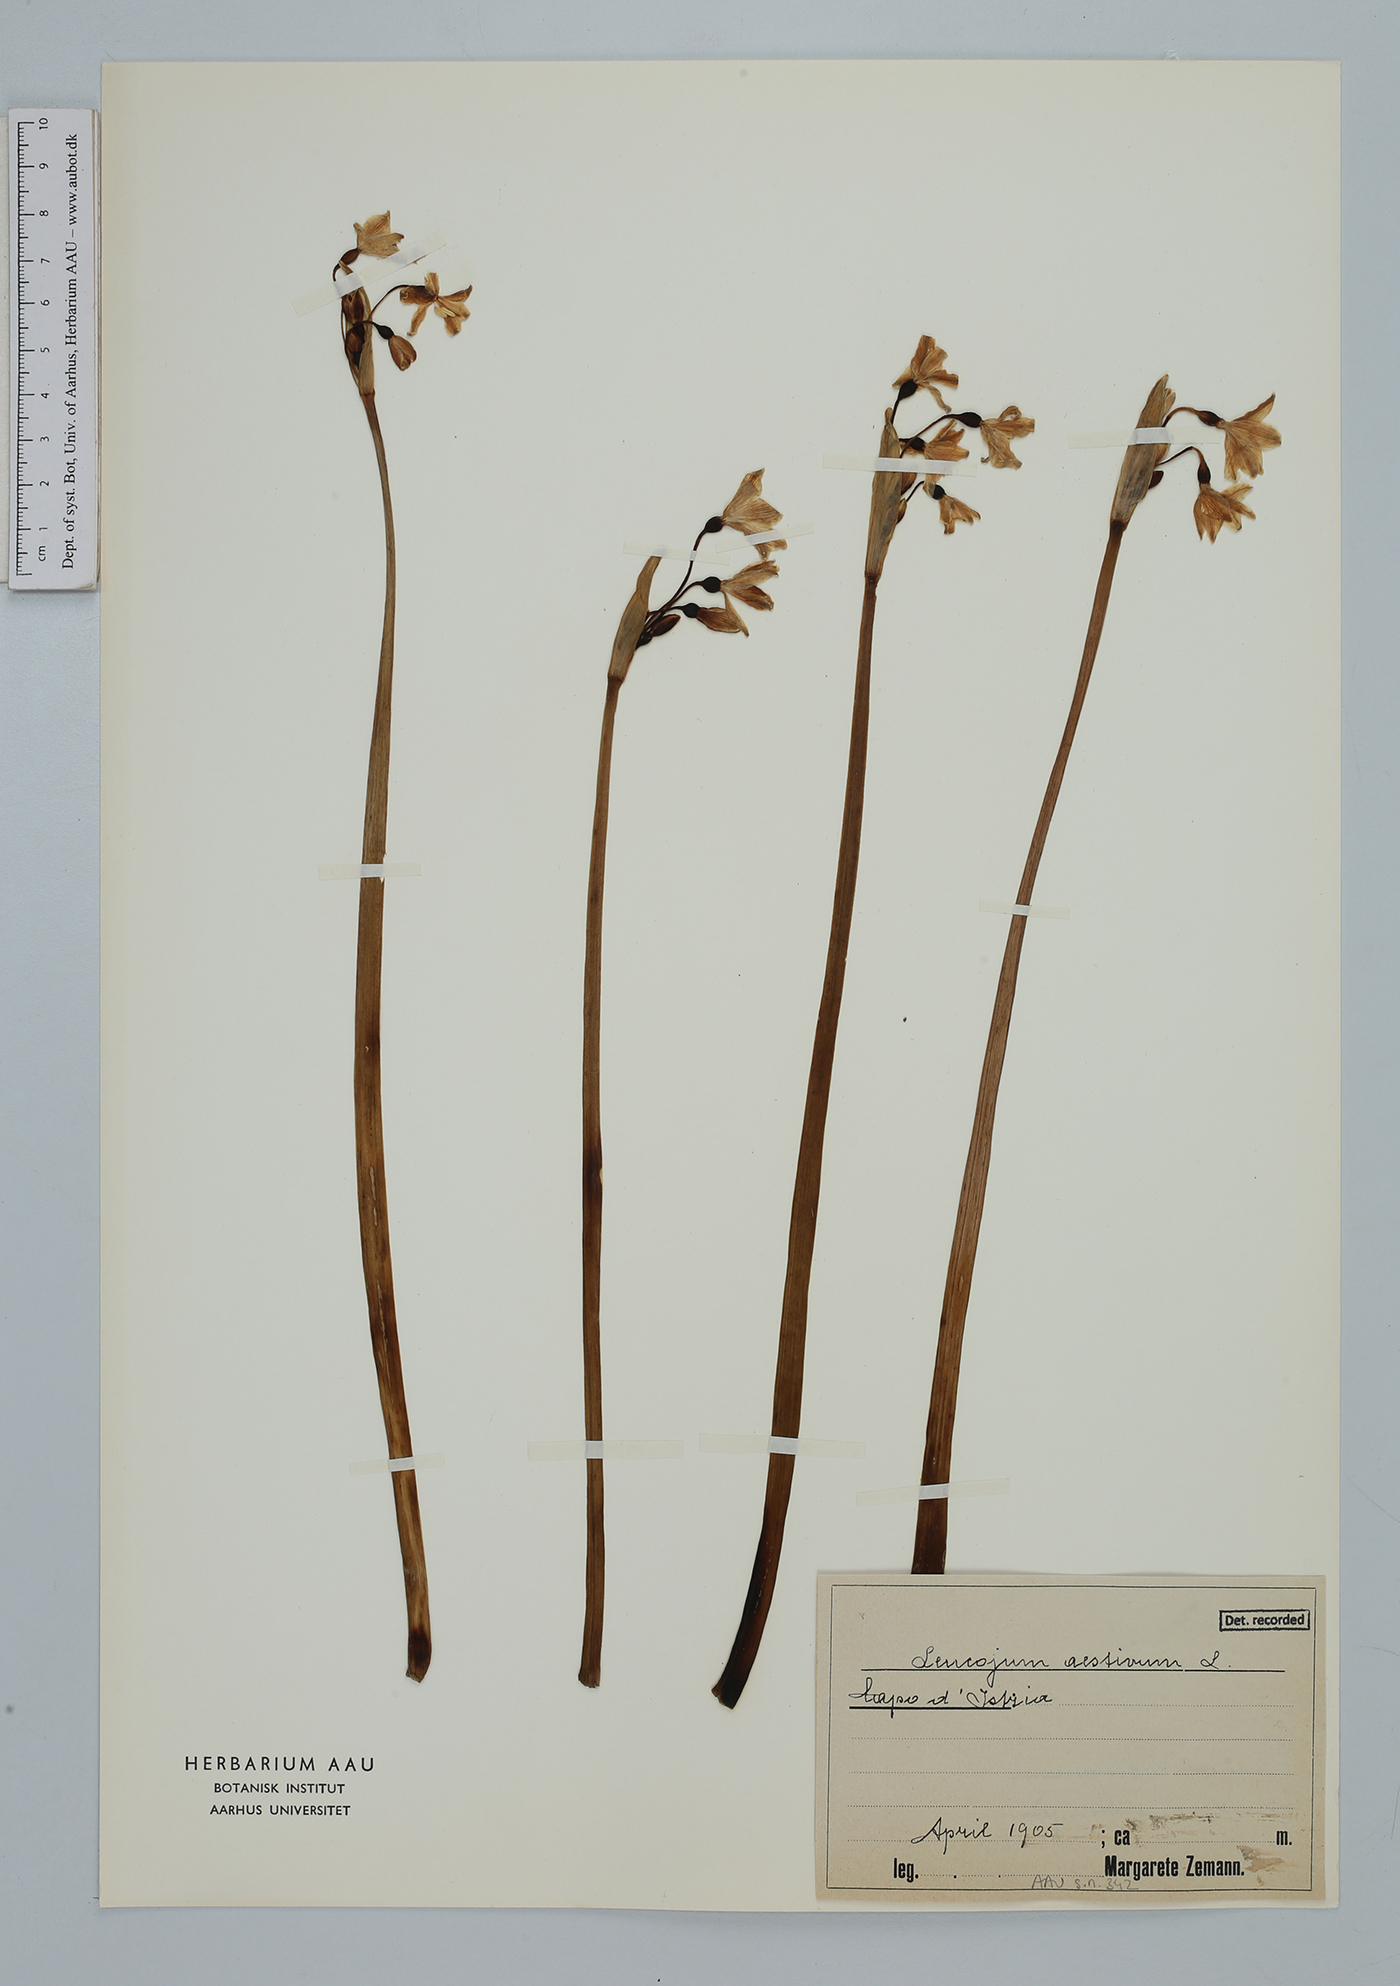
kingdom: Plantae
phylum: Tracheophyta
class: Liliopsida
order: Asparagales
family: Amaryllidaceae
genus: Leucojum
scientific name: Leucojum aestivum
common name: Summer snowflake
